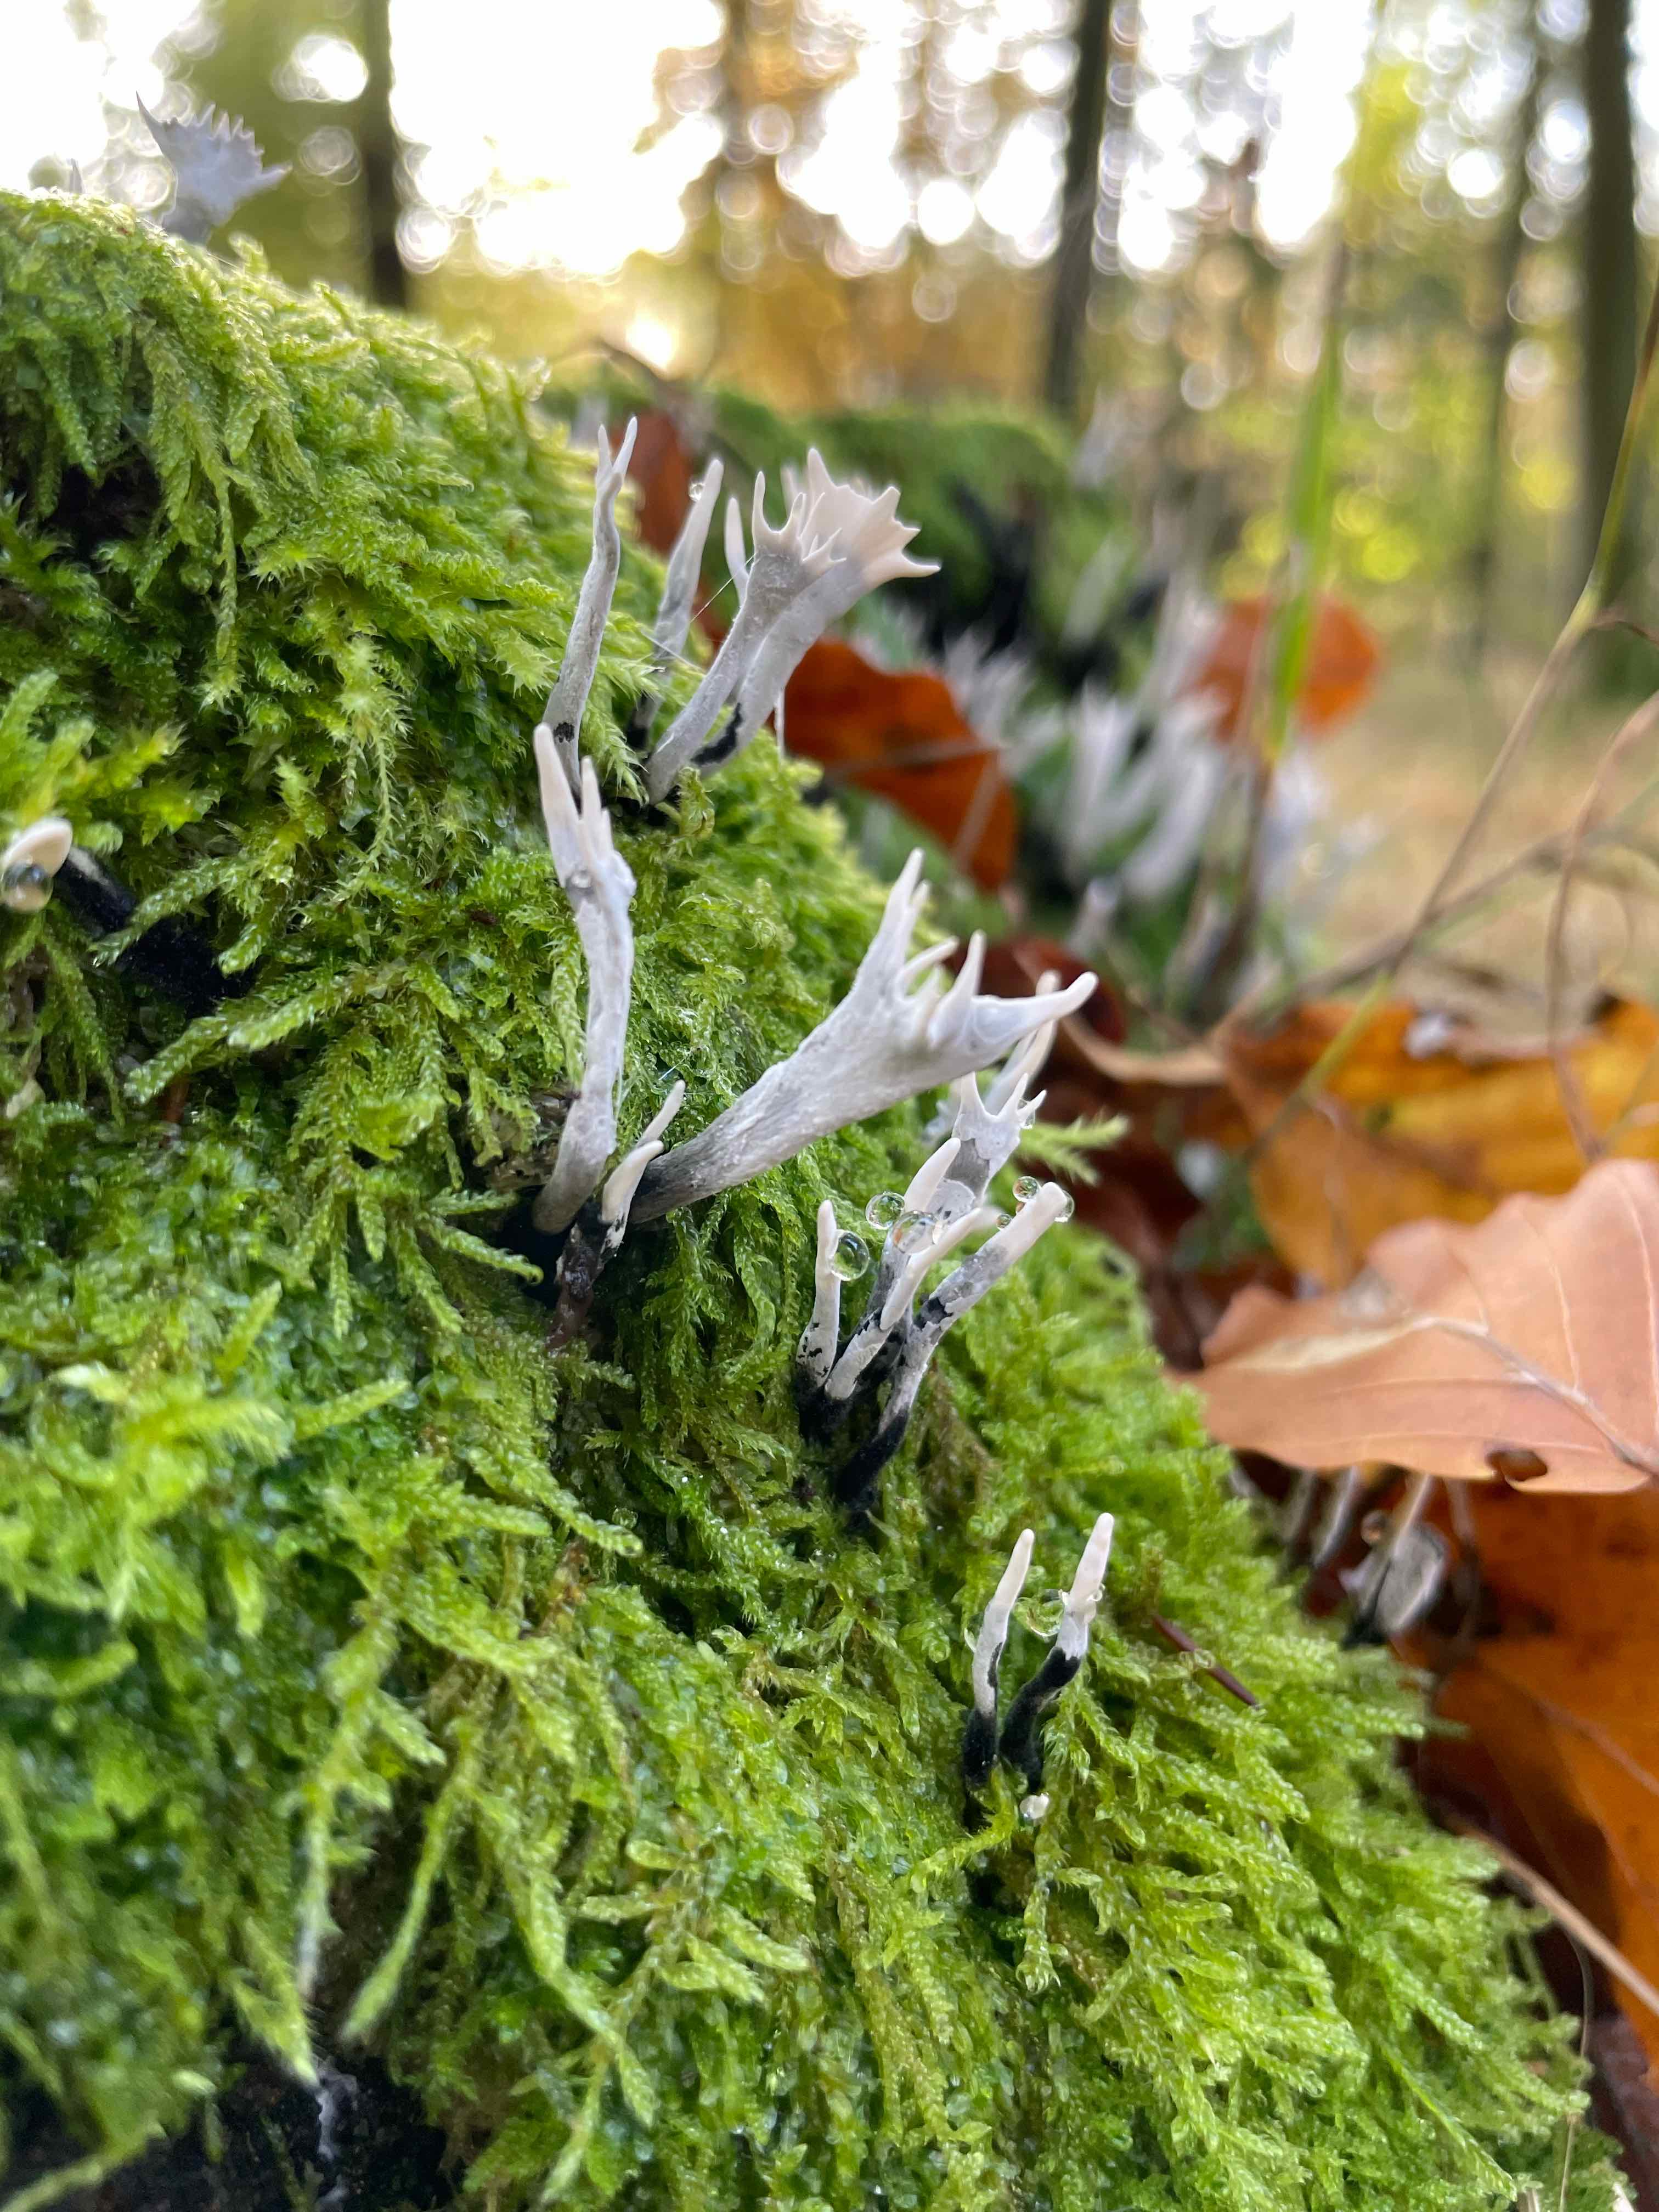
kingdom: Fungi
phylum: Ascomycota
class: Sordariomycetes
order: Xylariales
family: Xylariaceae
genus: Xylaria
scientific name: Xylaria hypoxylon
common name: grenet stødsvamp
